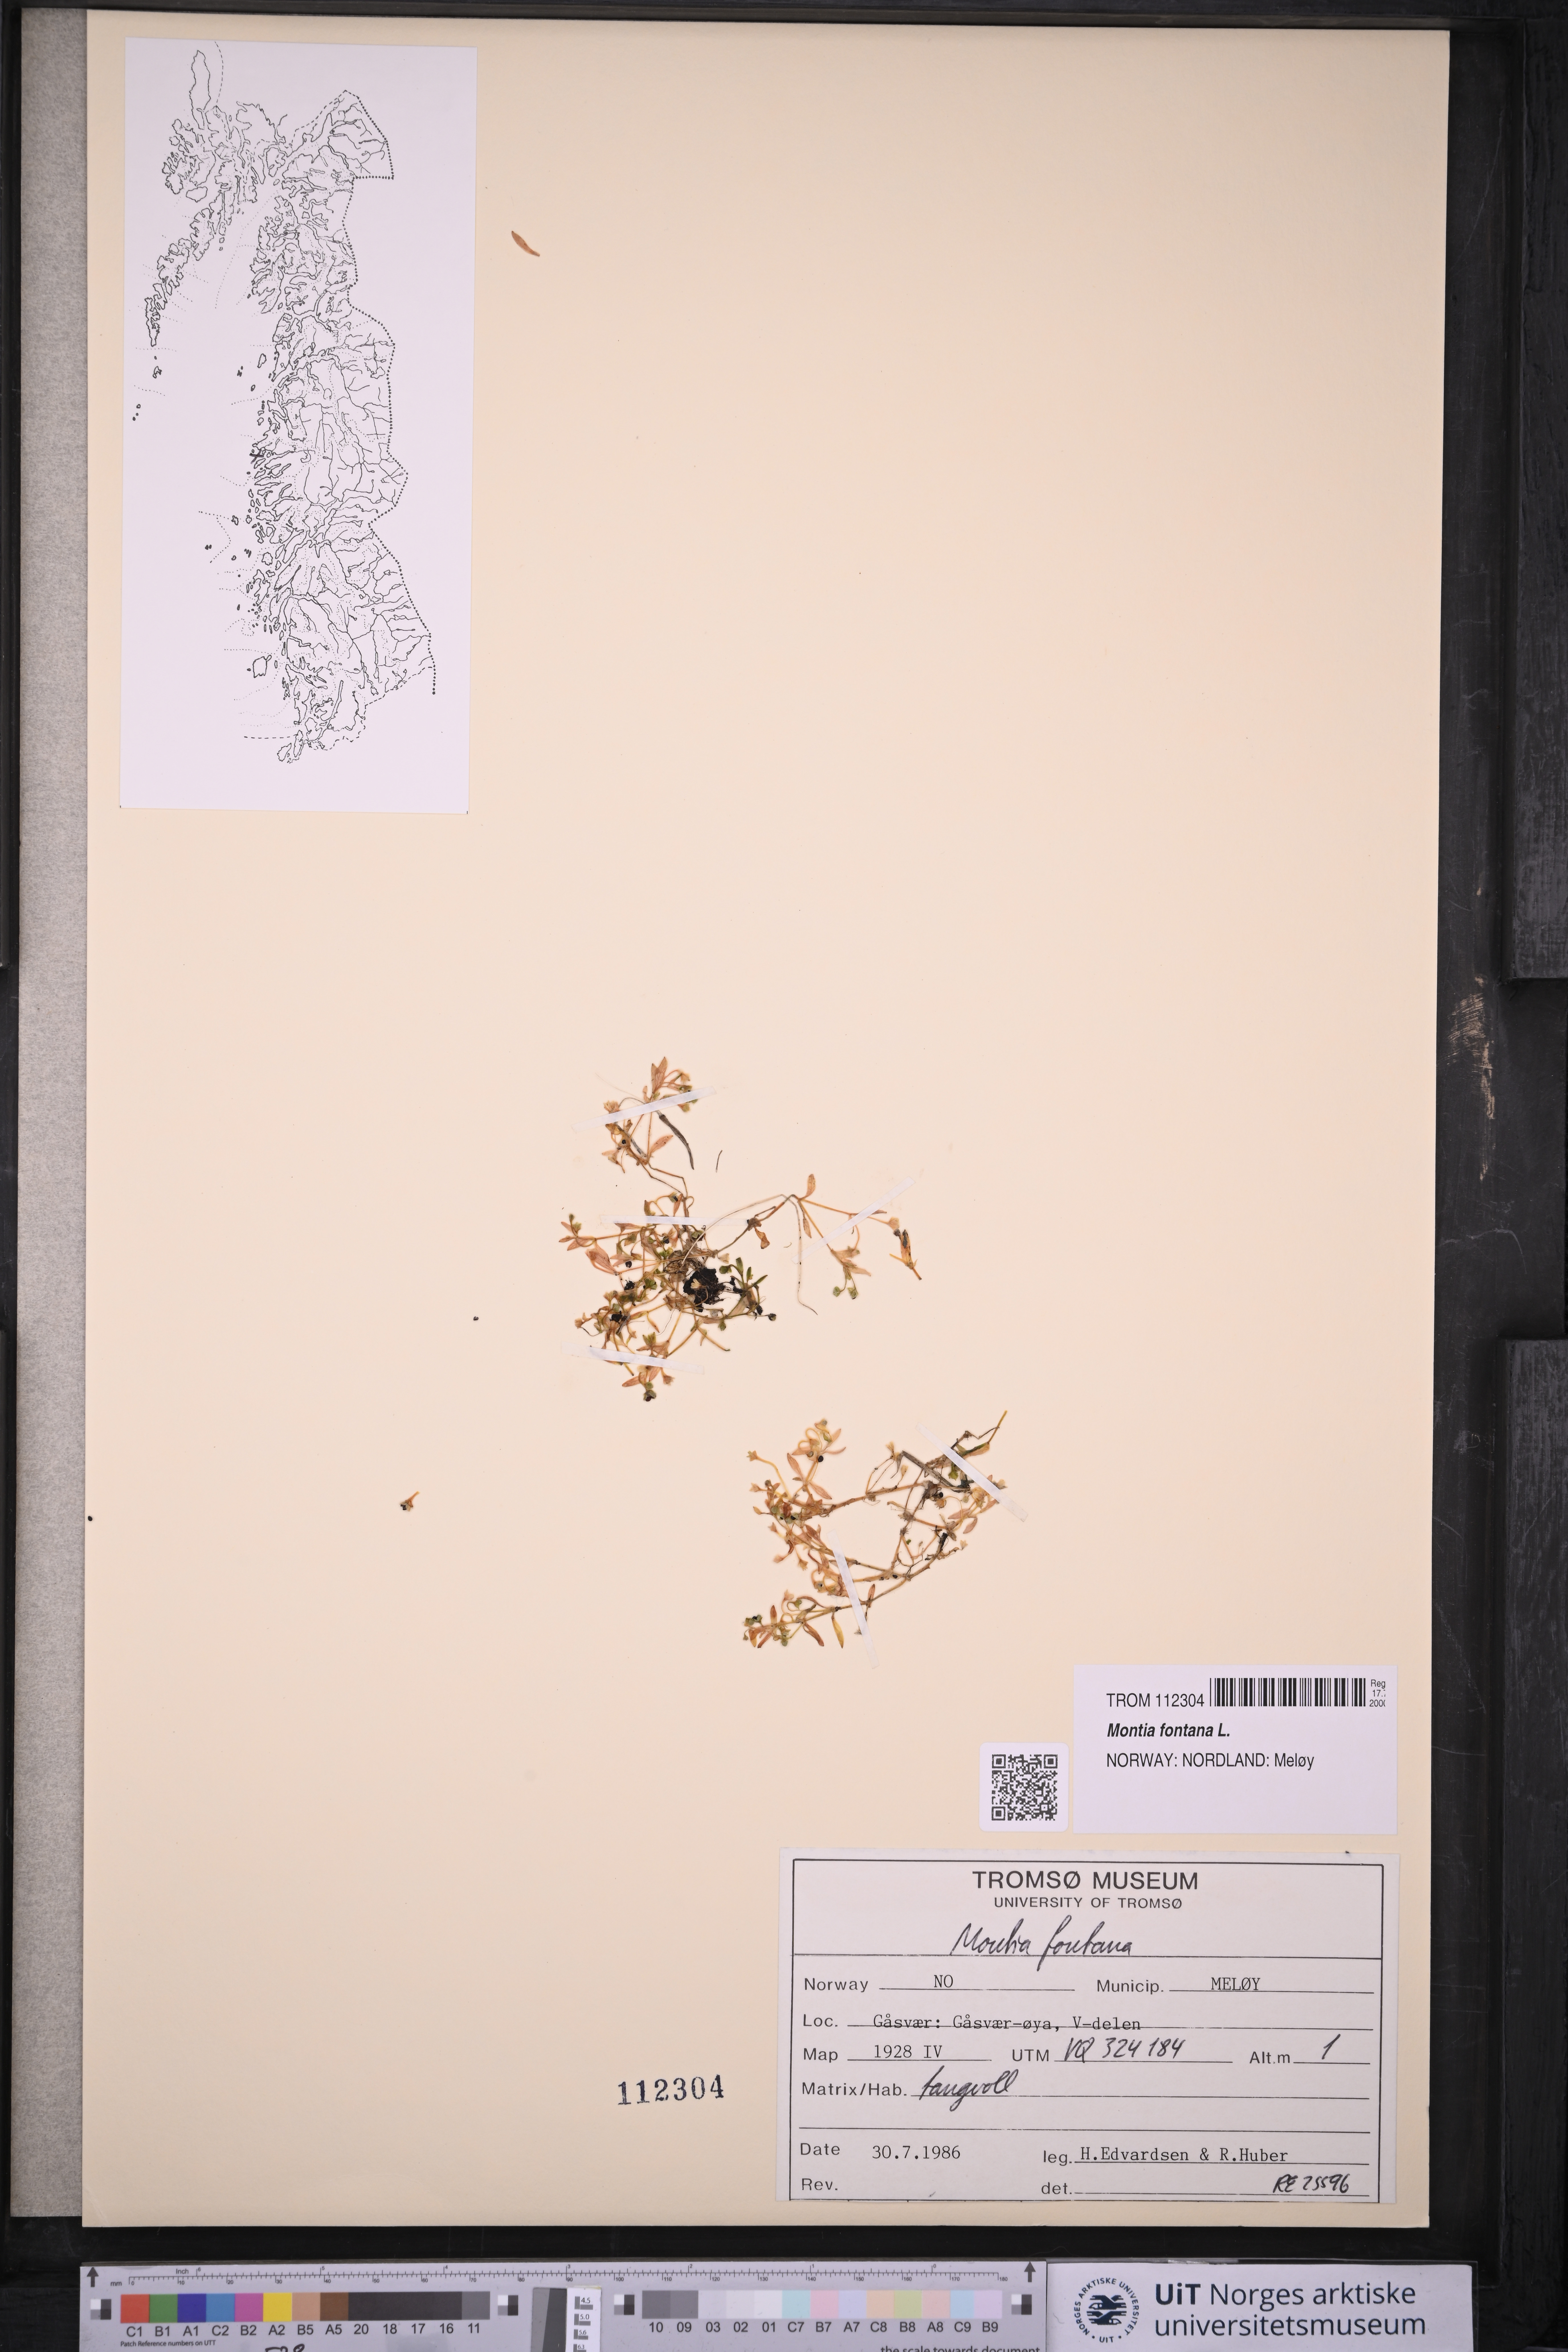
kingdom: Plantae
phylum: Tracheophyta
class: Magnoliopsida
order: Caryophyllales
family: Montiaceae
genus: Montia
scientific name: Montia fontana
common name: Blinks
